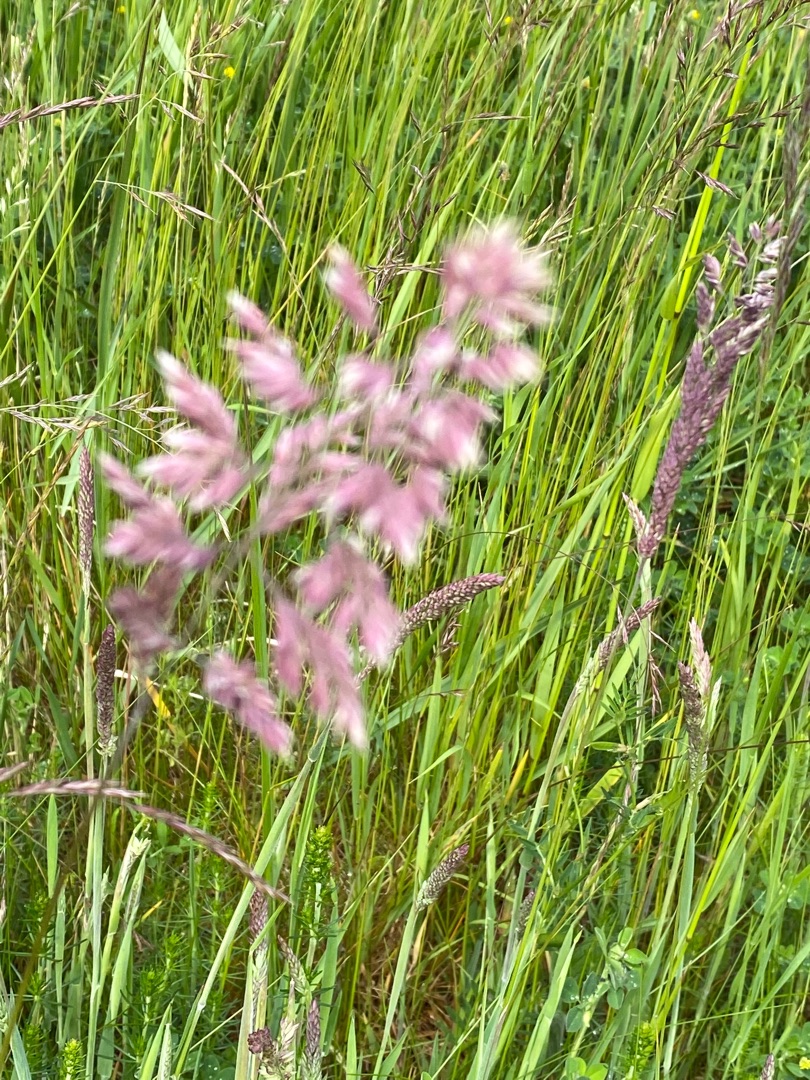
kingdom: Plantae
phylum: Tracheophyta
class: Liliopsida
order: Poales
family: Poaceae
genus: Holcus
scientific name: Holcus lanatus
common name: Fløjlsgræs
